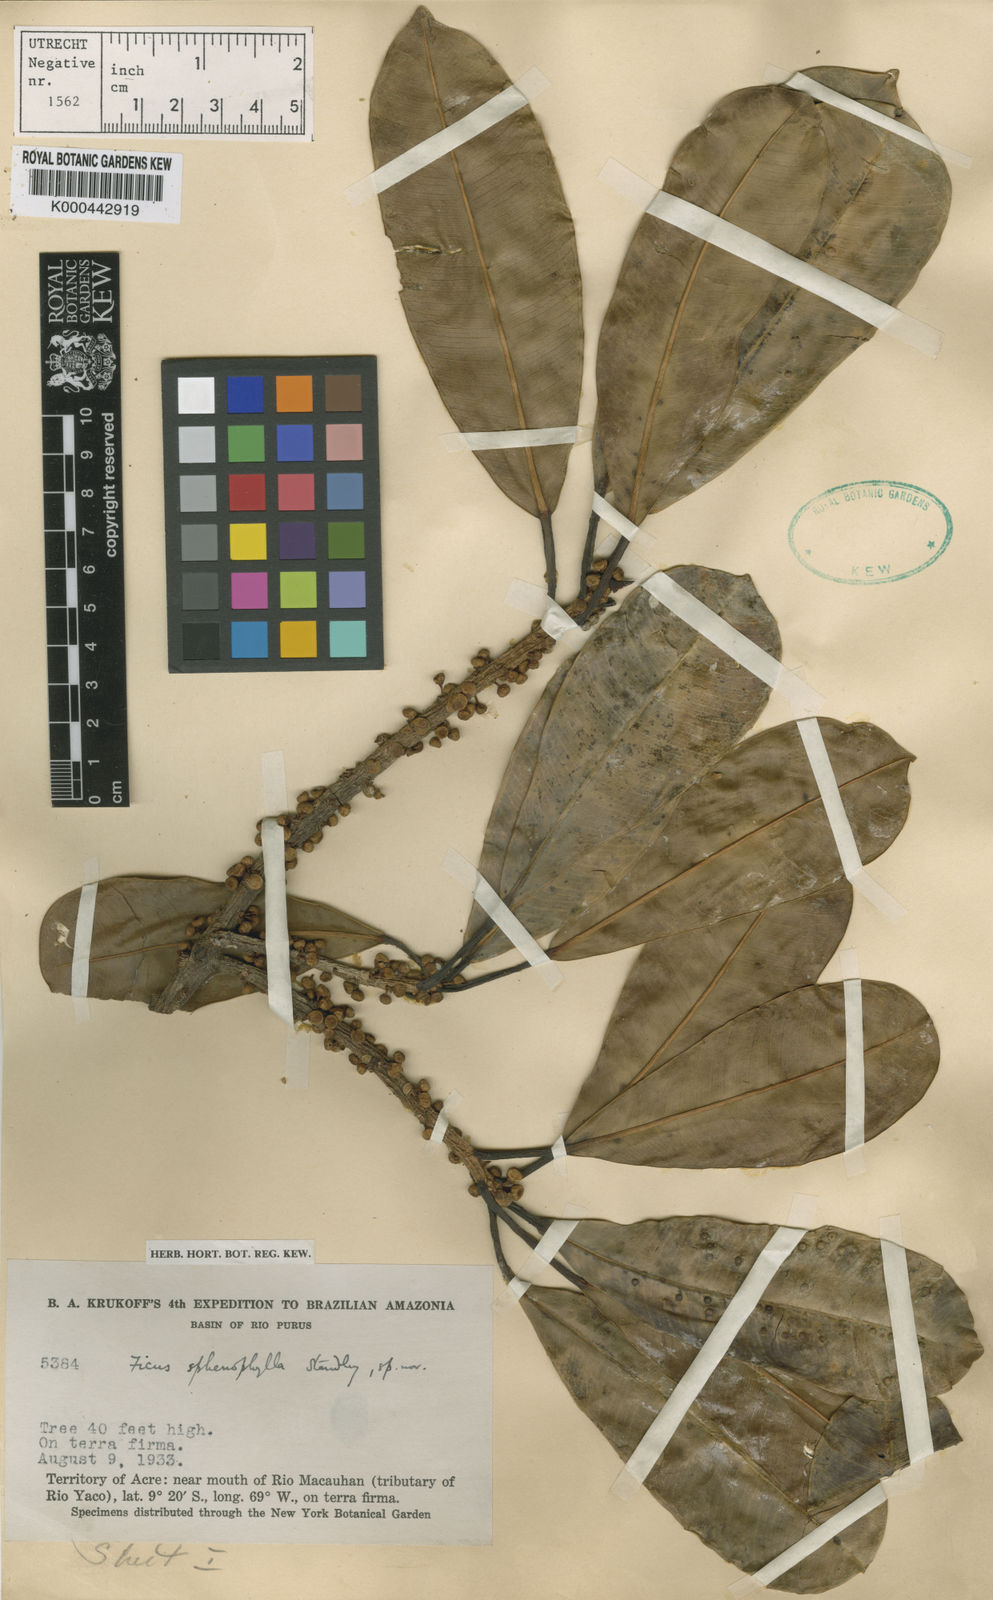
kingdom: Plantae
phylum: Tracheophyta
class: Magnoliopsida
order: Rosales
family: Moraceae
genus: Ficus
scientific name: Ficus sphenophylla
